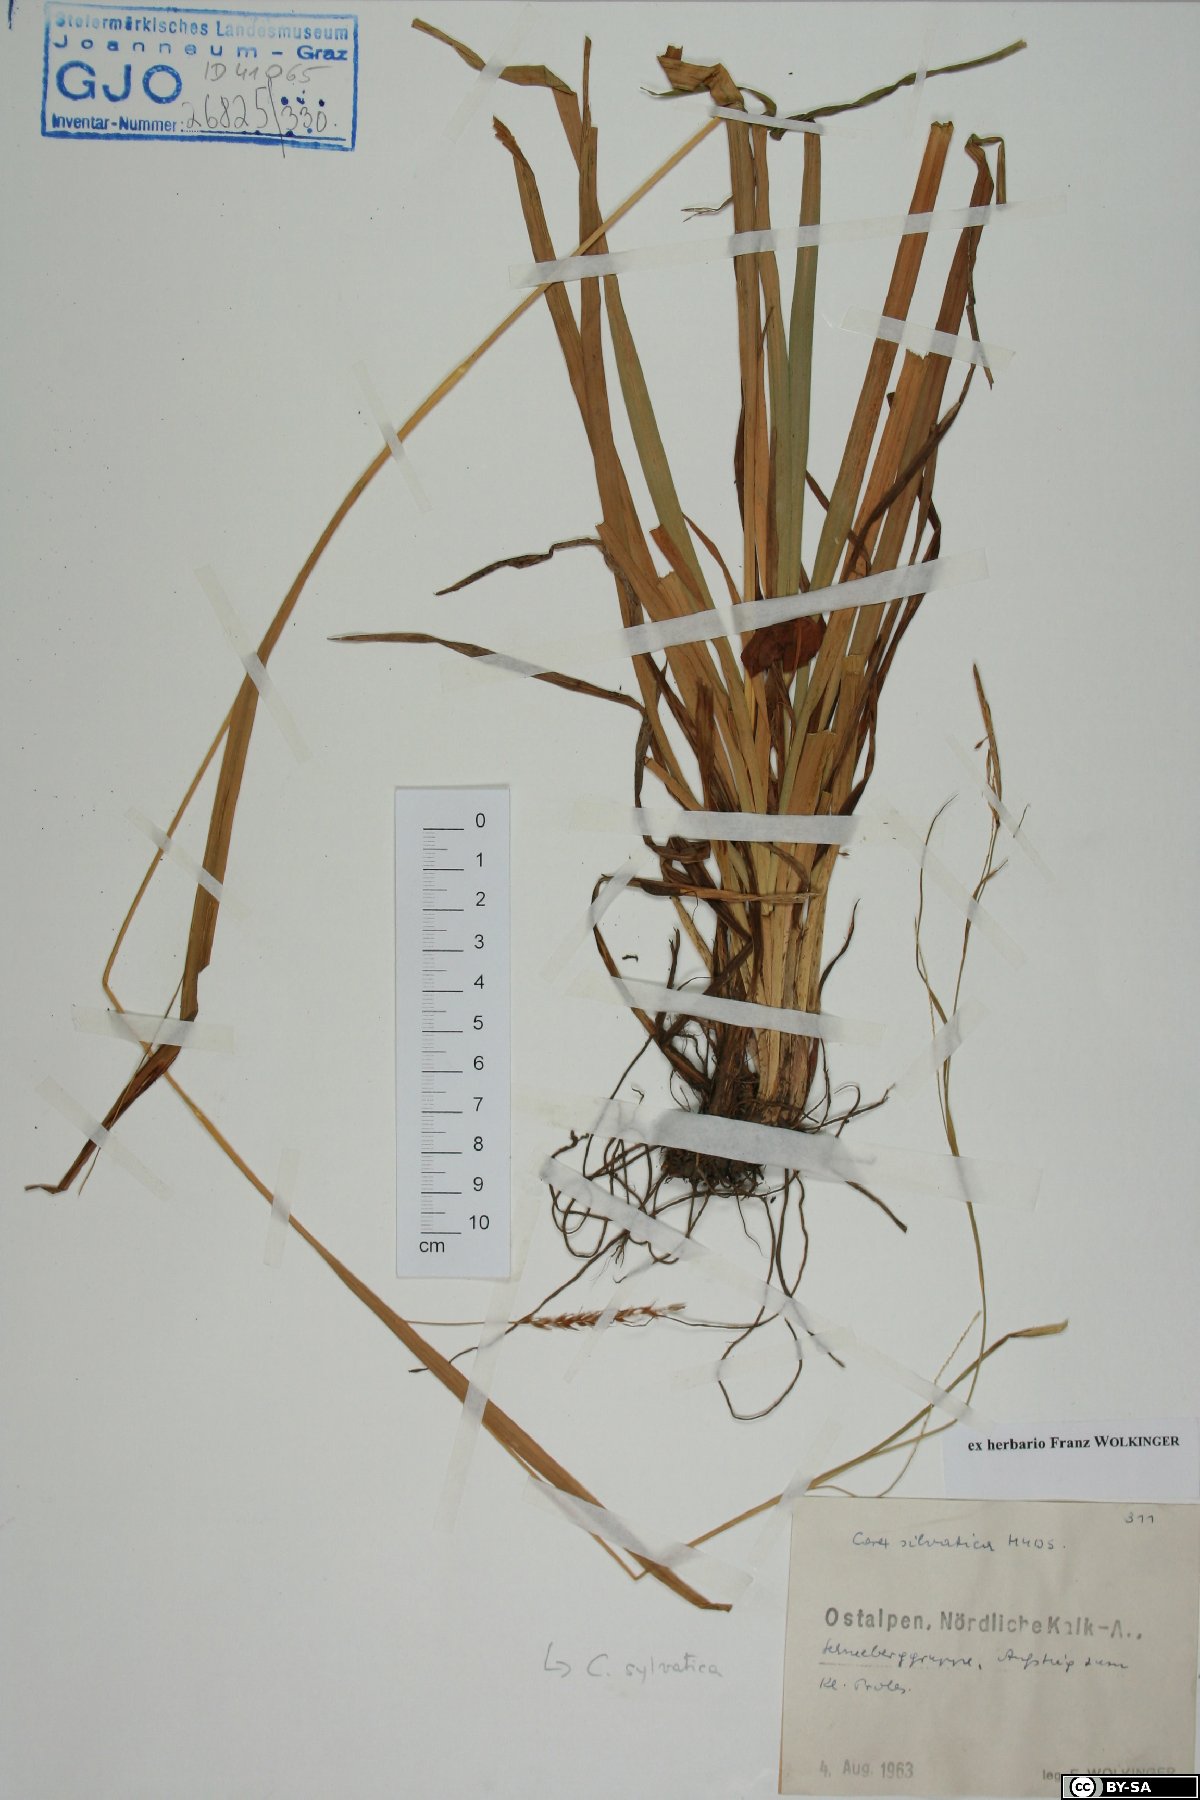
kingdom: Plantae
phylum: Tracheophyta
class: Liliopsida
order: Poales
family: Cyperaceae
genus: Carex
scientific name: Carex sylvatica
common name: Wood-sedge
